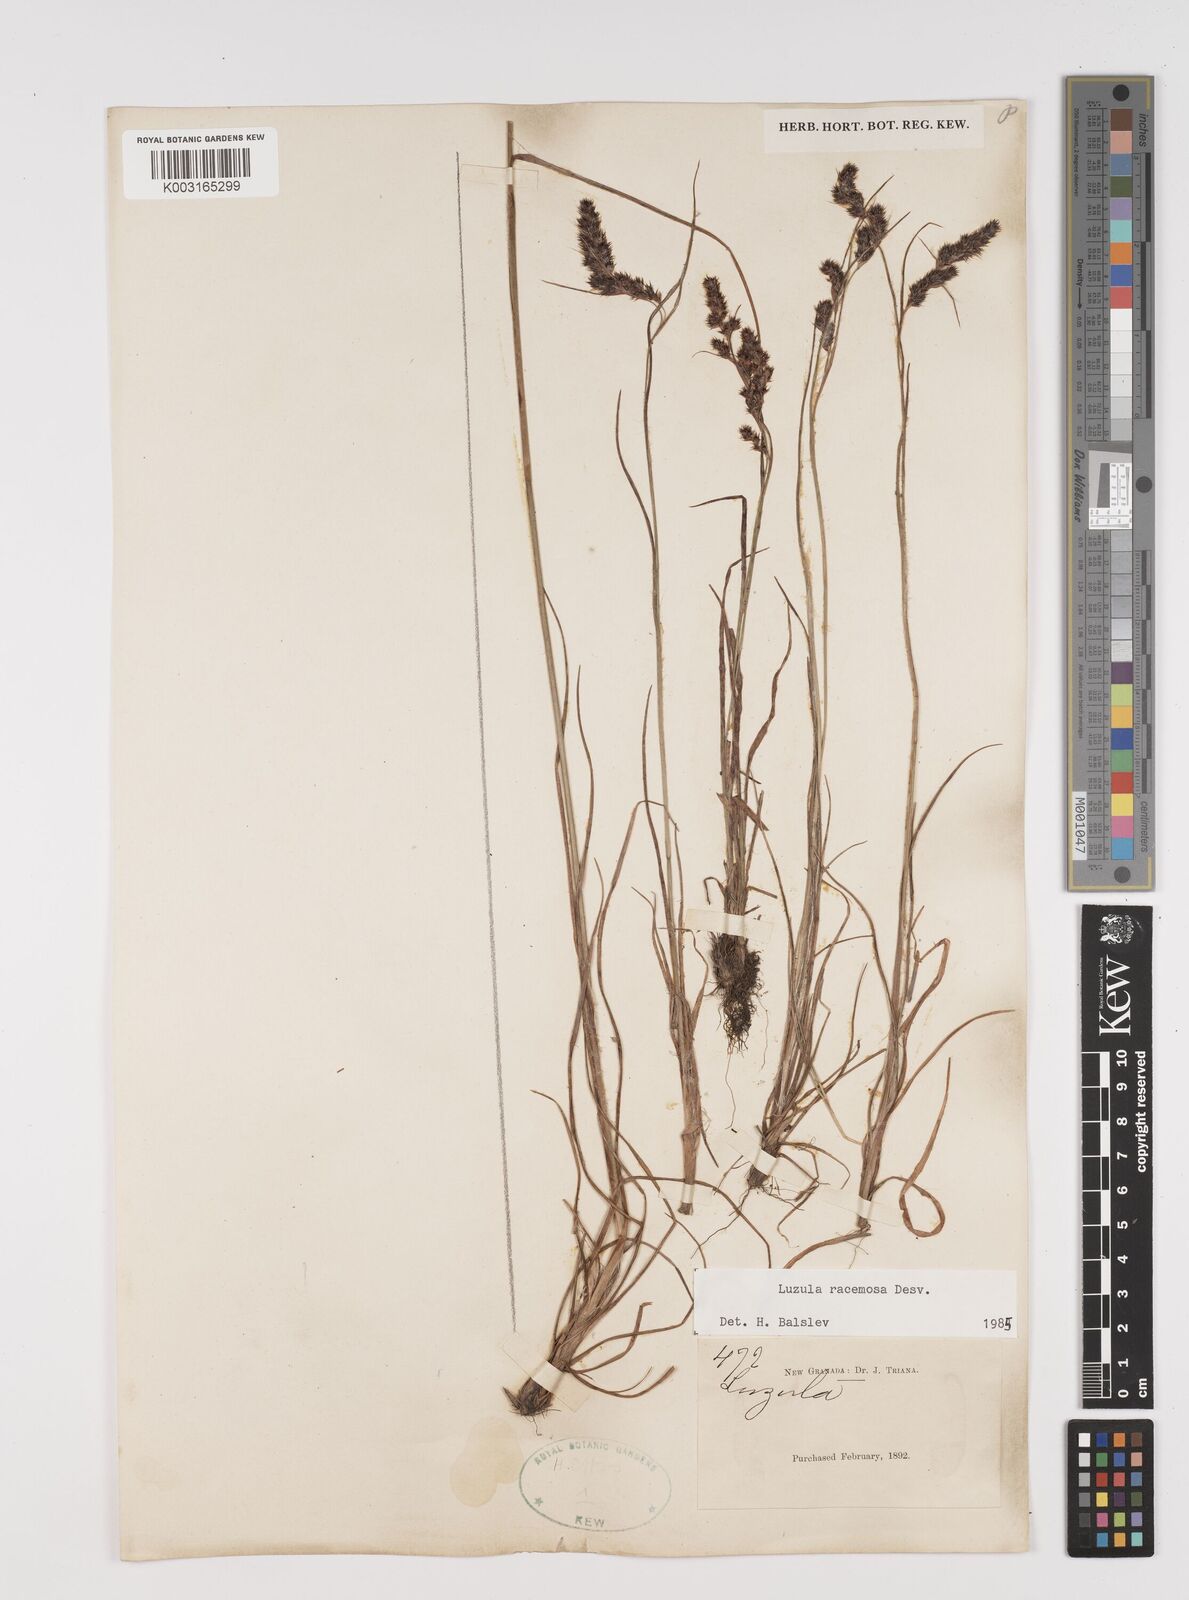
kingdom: Plantae
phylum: Tracheophyta
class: Liliopsida
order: Poales
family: Juncaceae
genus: Luzula
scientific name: Luzula racemosa
